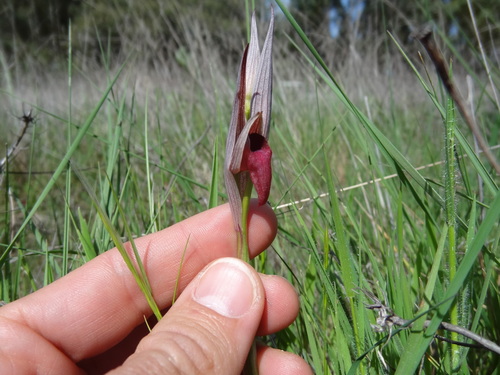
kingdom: Plantae
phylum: Tracheophyta
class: Liliopsida
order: Asparagales
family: Orchidaceae
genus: Serapias
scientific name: Serapias strictiflora
